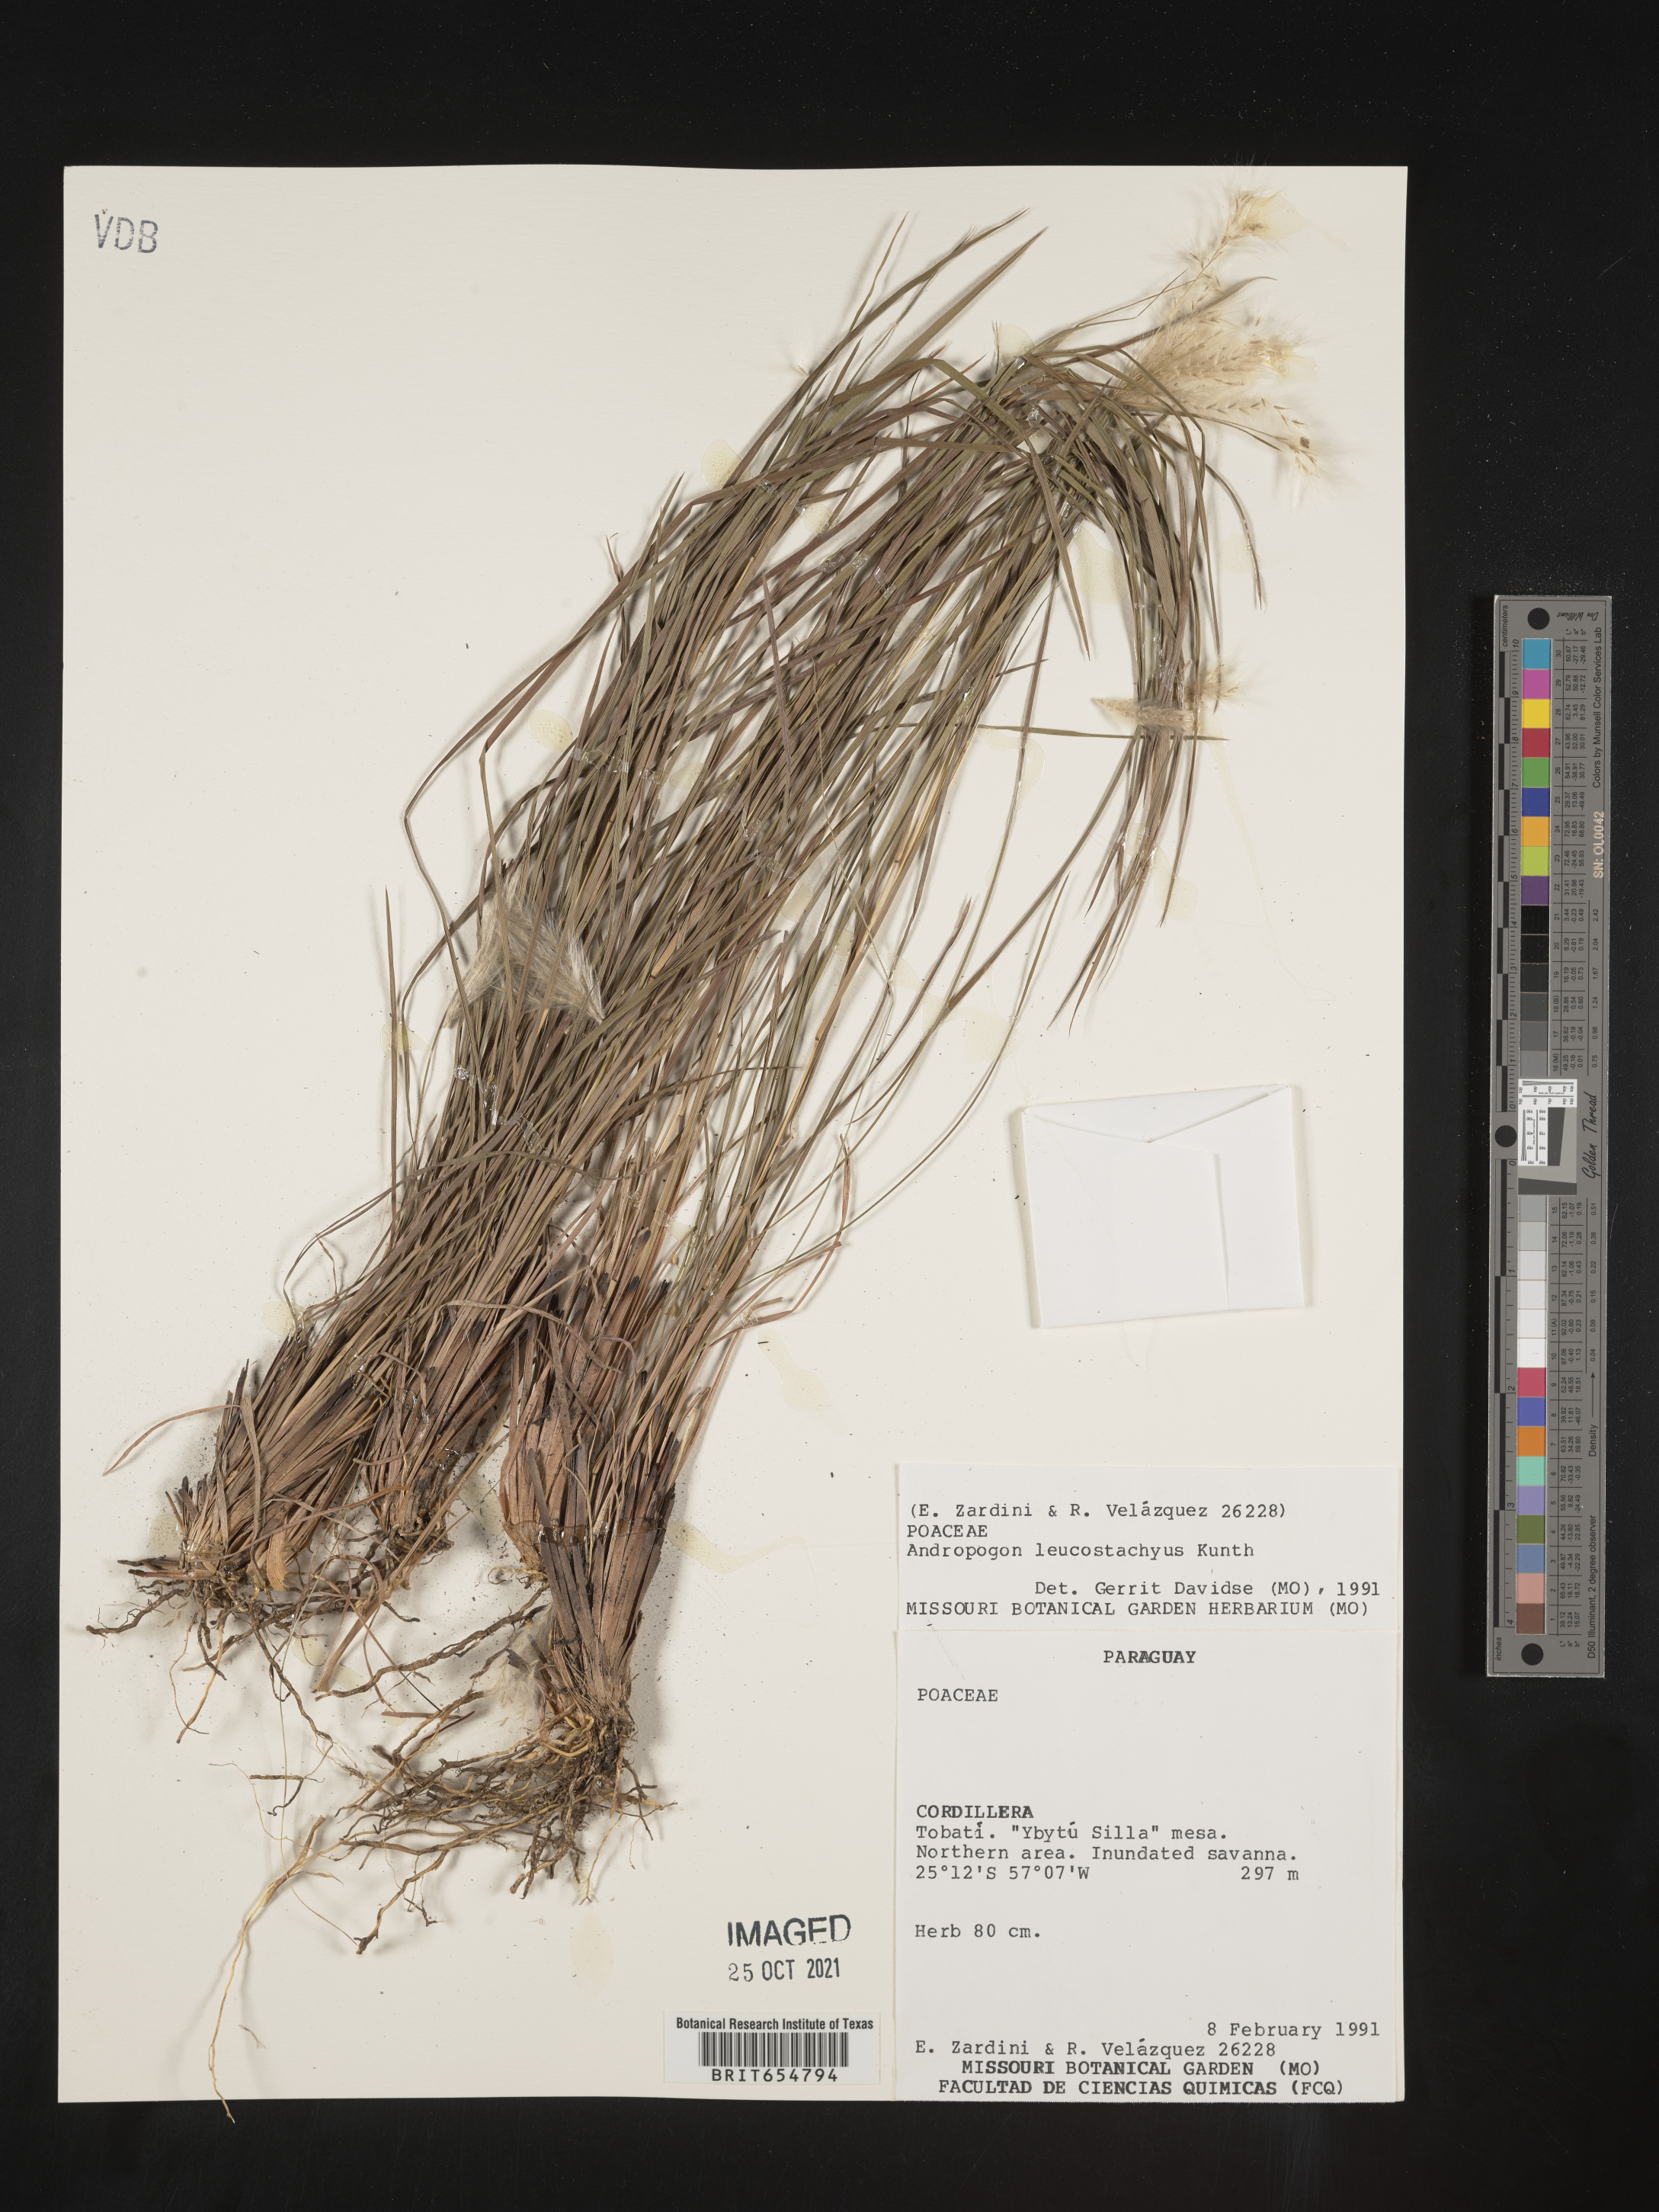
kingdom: Plantae
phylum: Tracheophyta
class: Liliopsida
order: Poales
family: Poaceae
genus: Andropogon
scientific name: Andropogon
